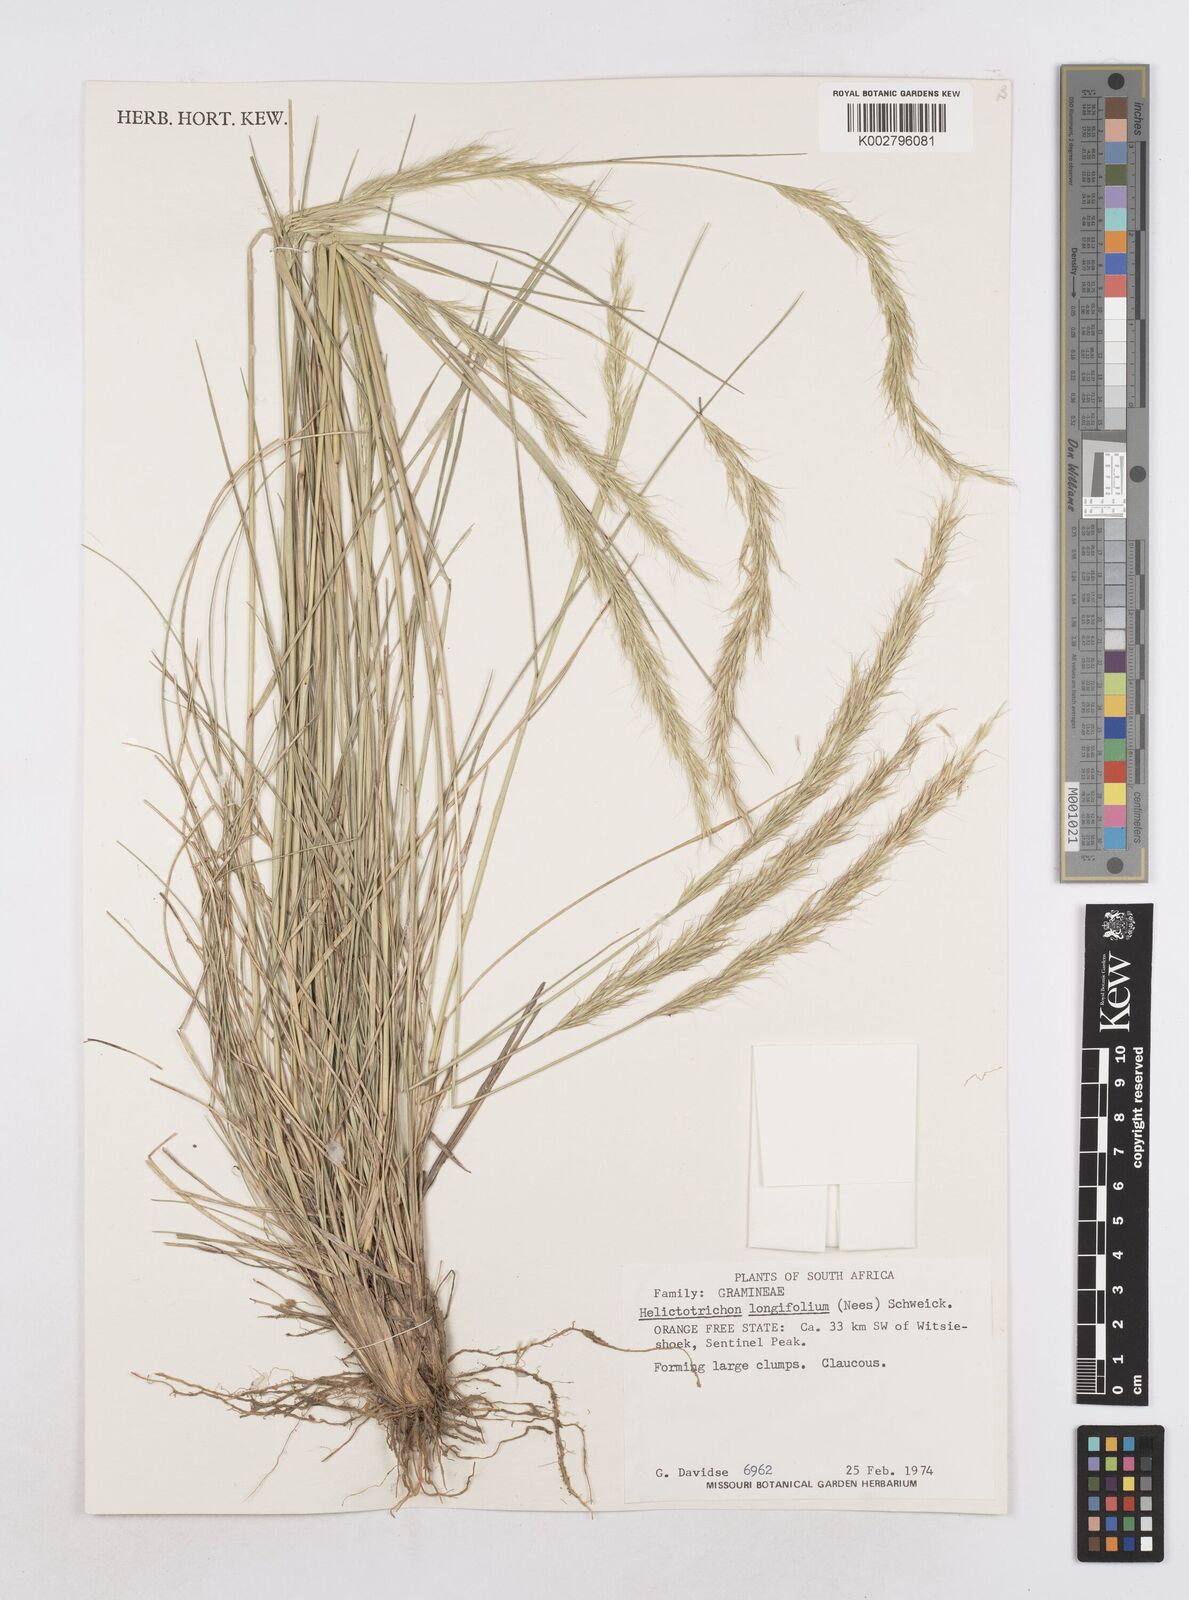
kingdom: Plantae
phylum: Tracheophyta
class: Liliopsida
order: Poales
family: Poaceae
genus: Trisetopsis
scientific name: Trisetopsis longifolia
